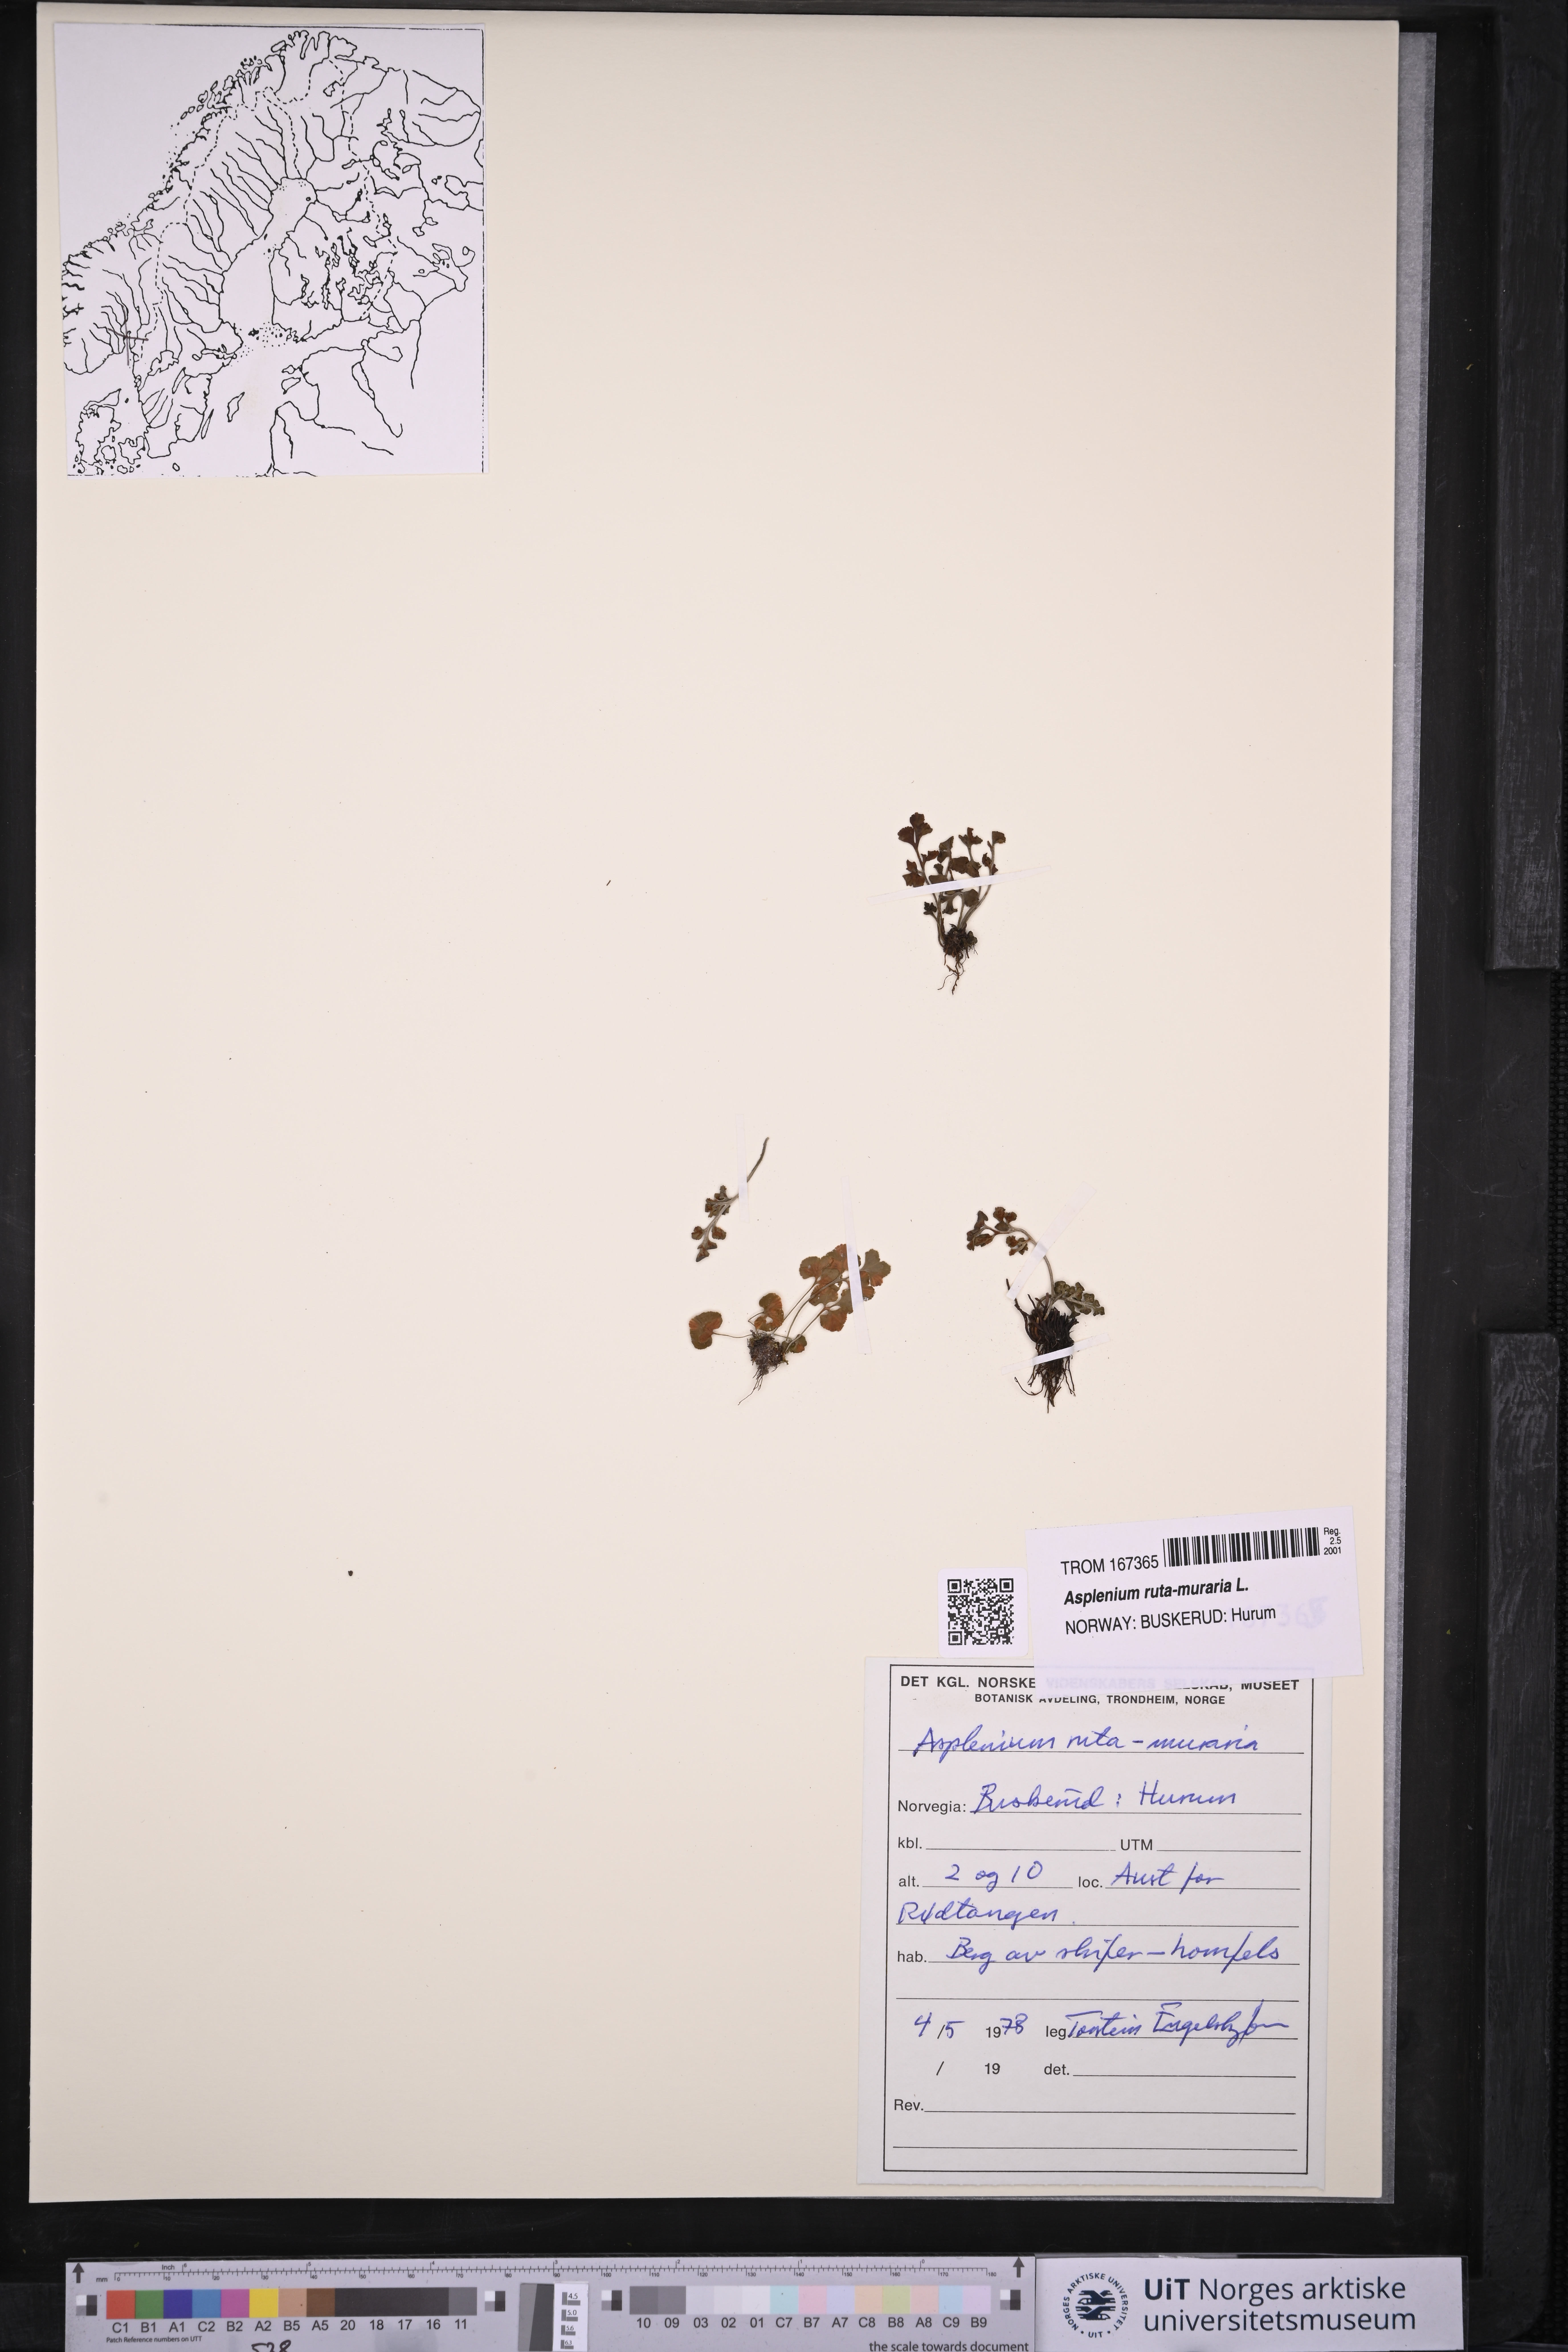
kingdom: Plantae
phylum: Tracheophyta
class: Polypodiopsida
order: Polypodiales
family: Aspleniaceae
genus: Asplenium
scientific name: Asplenium ruta-muraria
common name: Wall-rue
